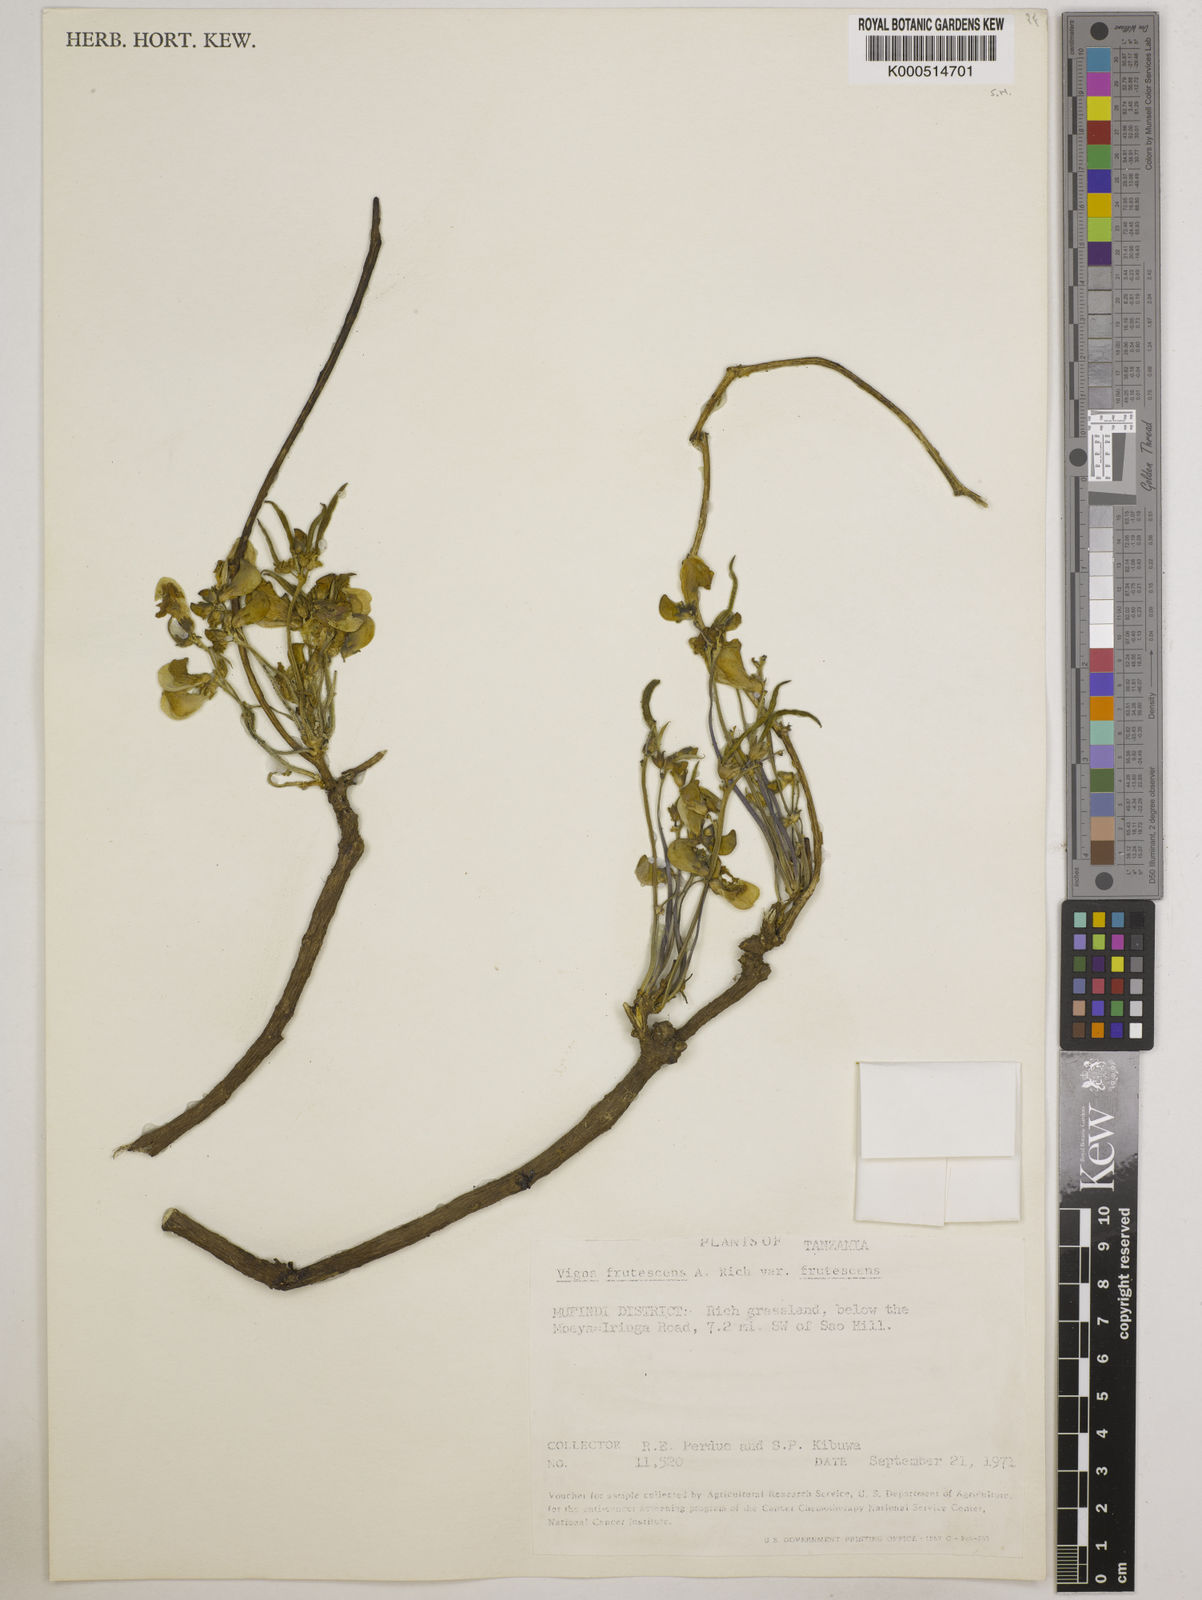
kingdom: Plantae
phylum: Tracheophyta
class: Magnoliopsida
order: Fabales
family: Fabaceae
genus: Vigna
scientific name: Vigna
